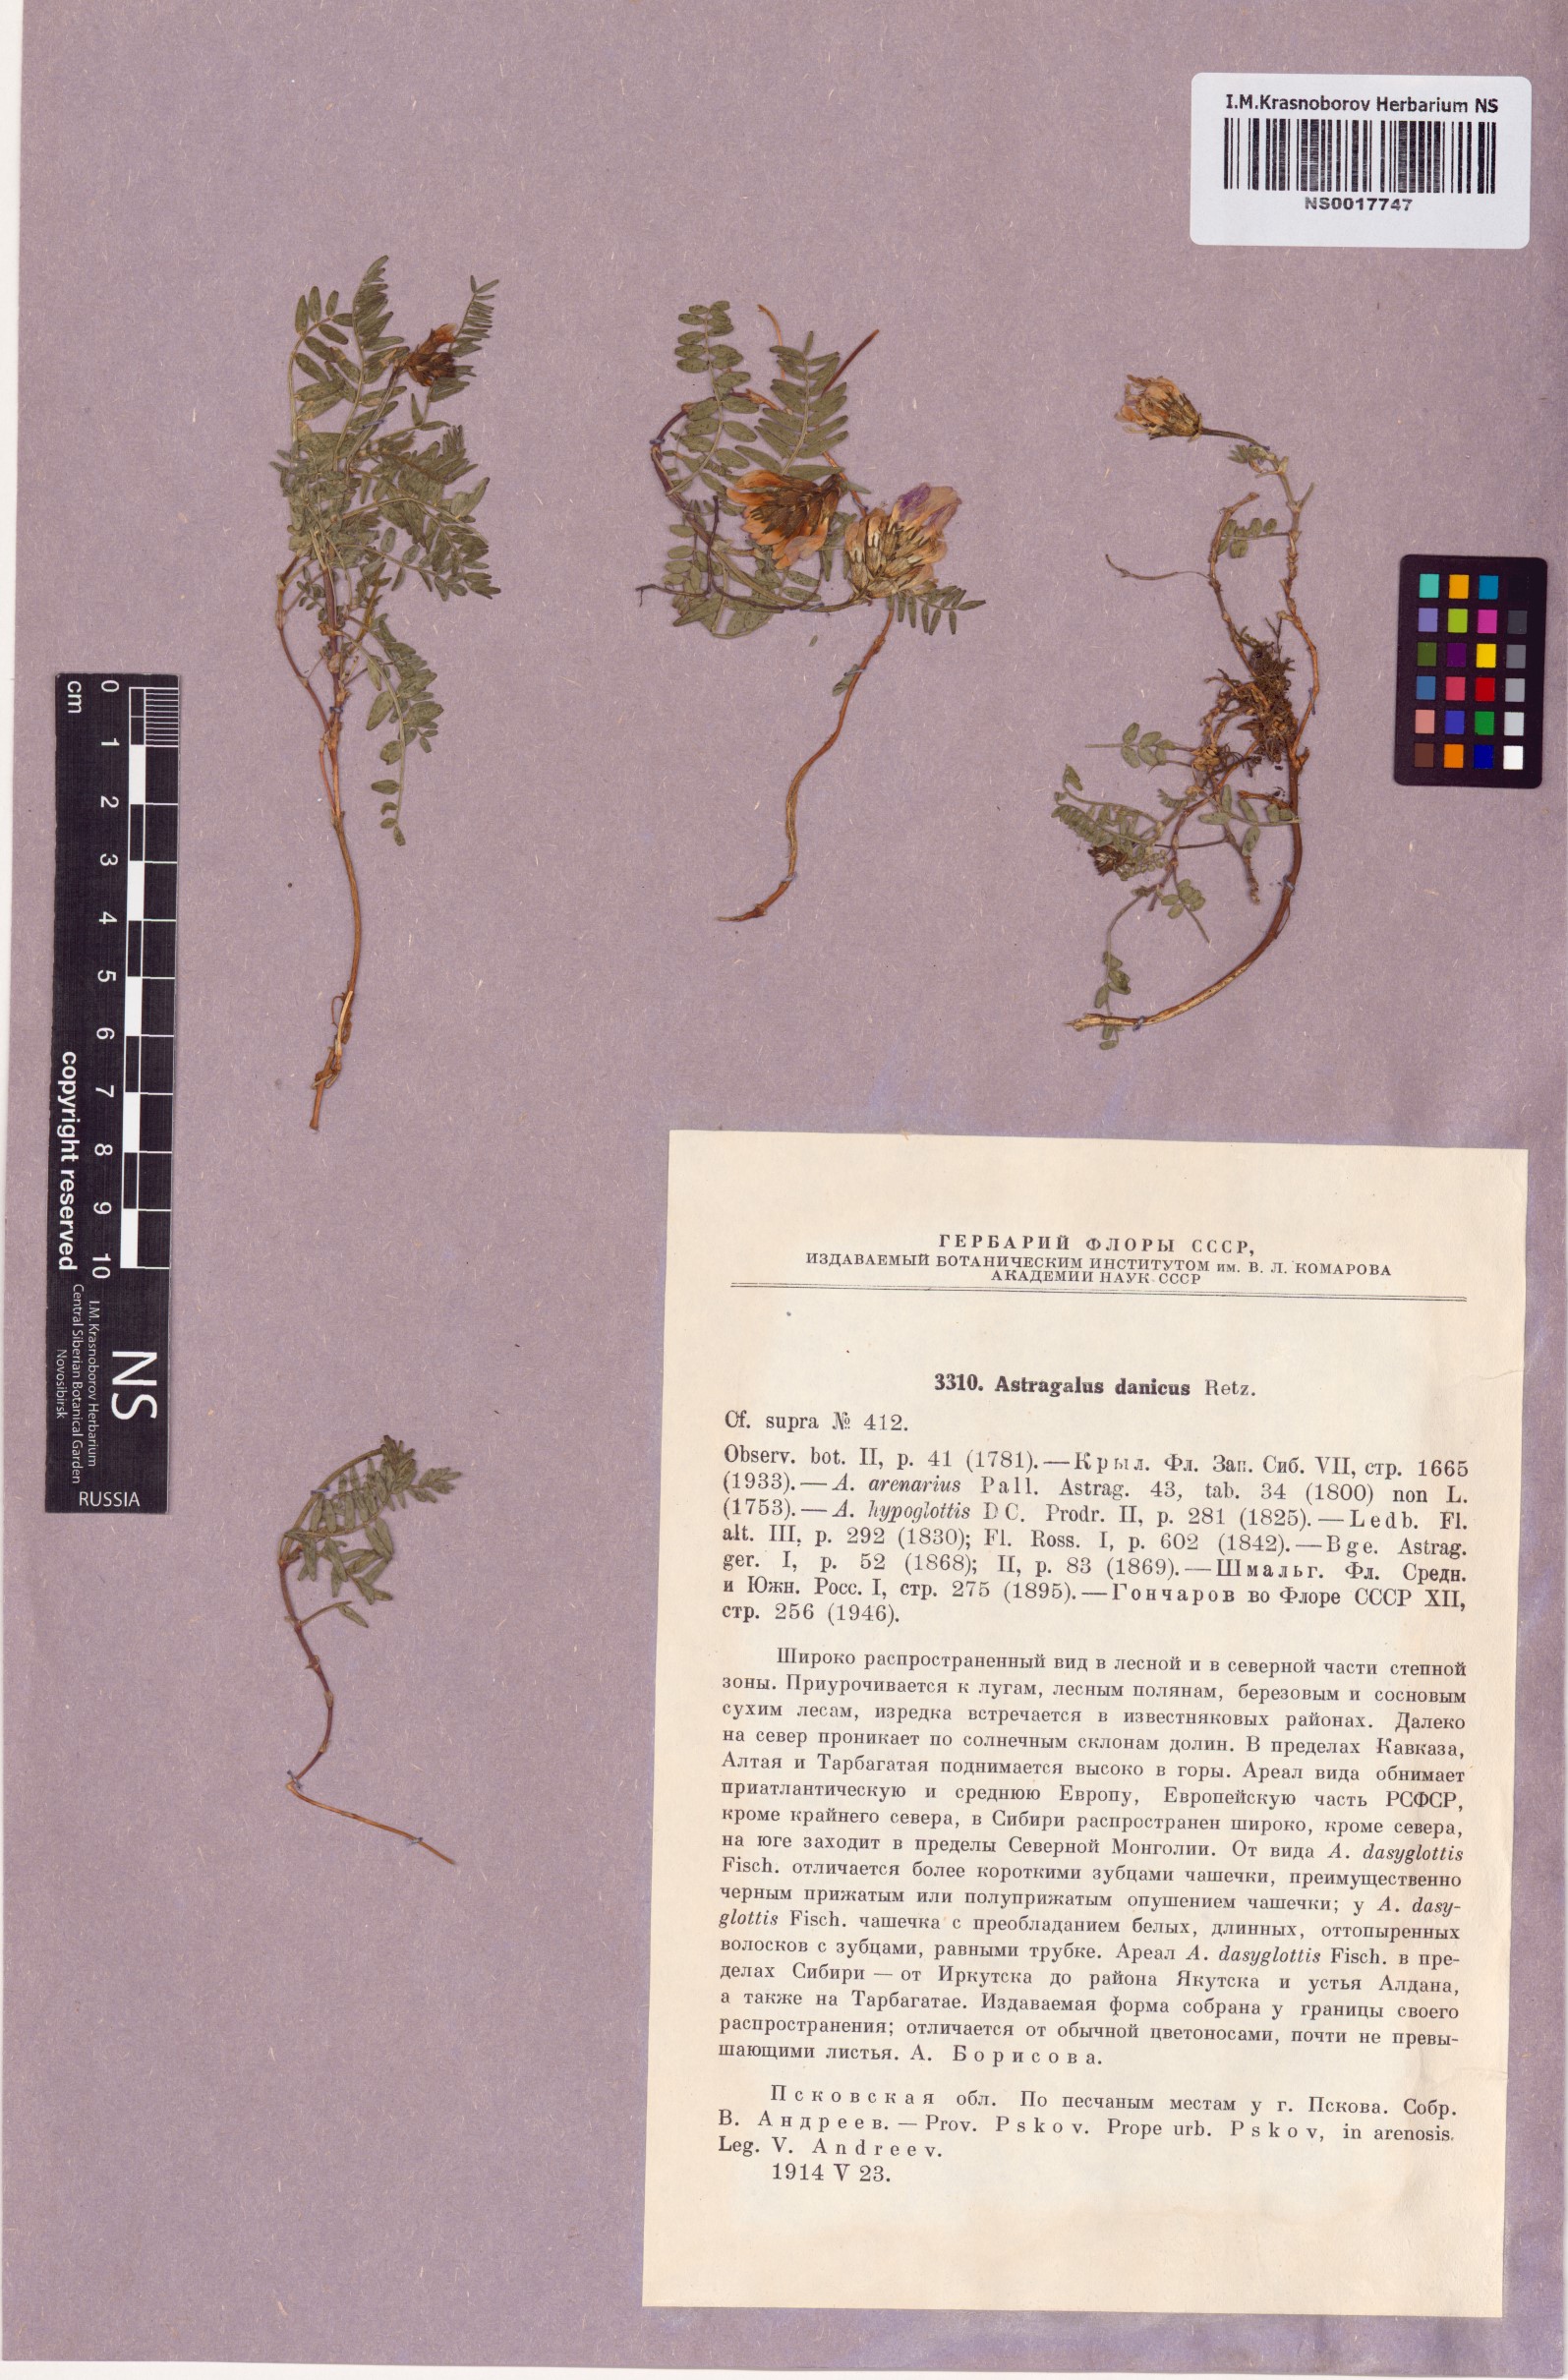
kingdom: Plantae
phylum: Tracheophyta
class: Magnoliopsida
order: Fabales
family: Fabaceae
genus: Astragalus
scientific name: Astragalus danicus
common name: Purple milk-vetch
